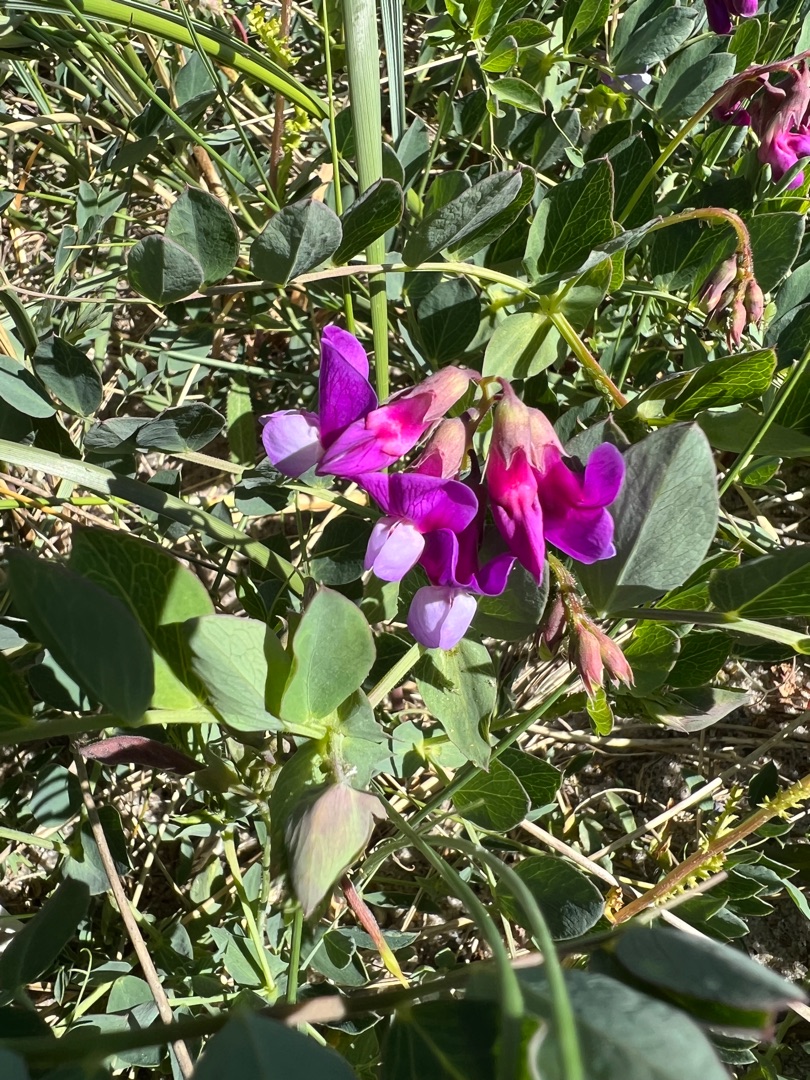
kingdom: Plantae
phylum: Tracheophyta
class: Magnoliopsida
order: Fabales
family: Fabaceae
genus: Lathyrus
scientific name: Lathyrus japonicus
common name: Strand-fladbælg
